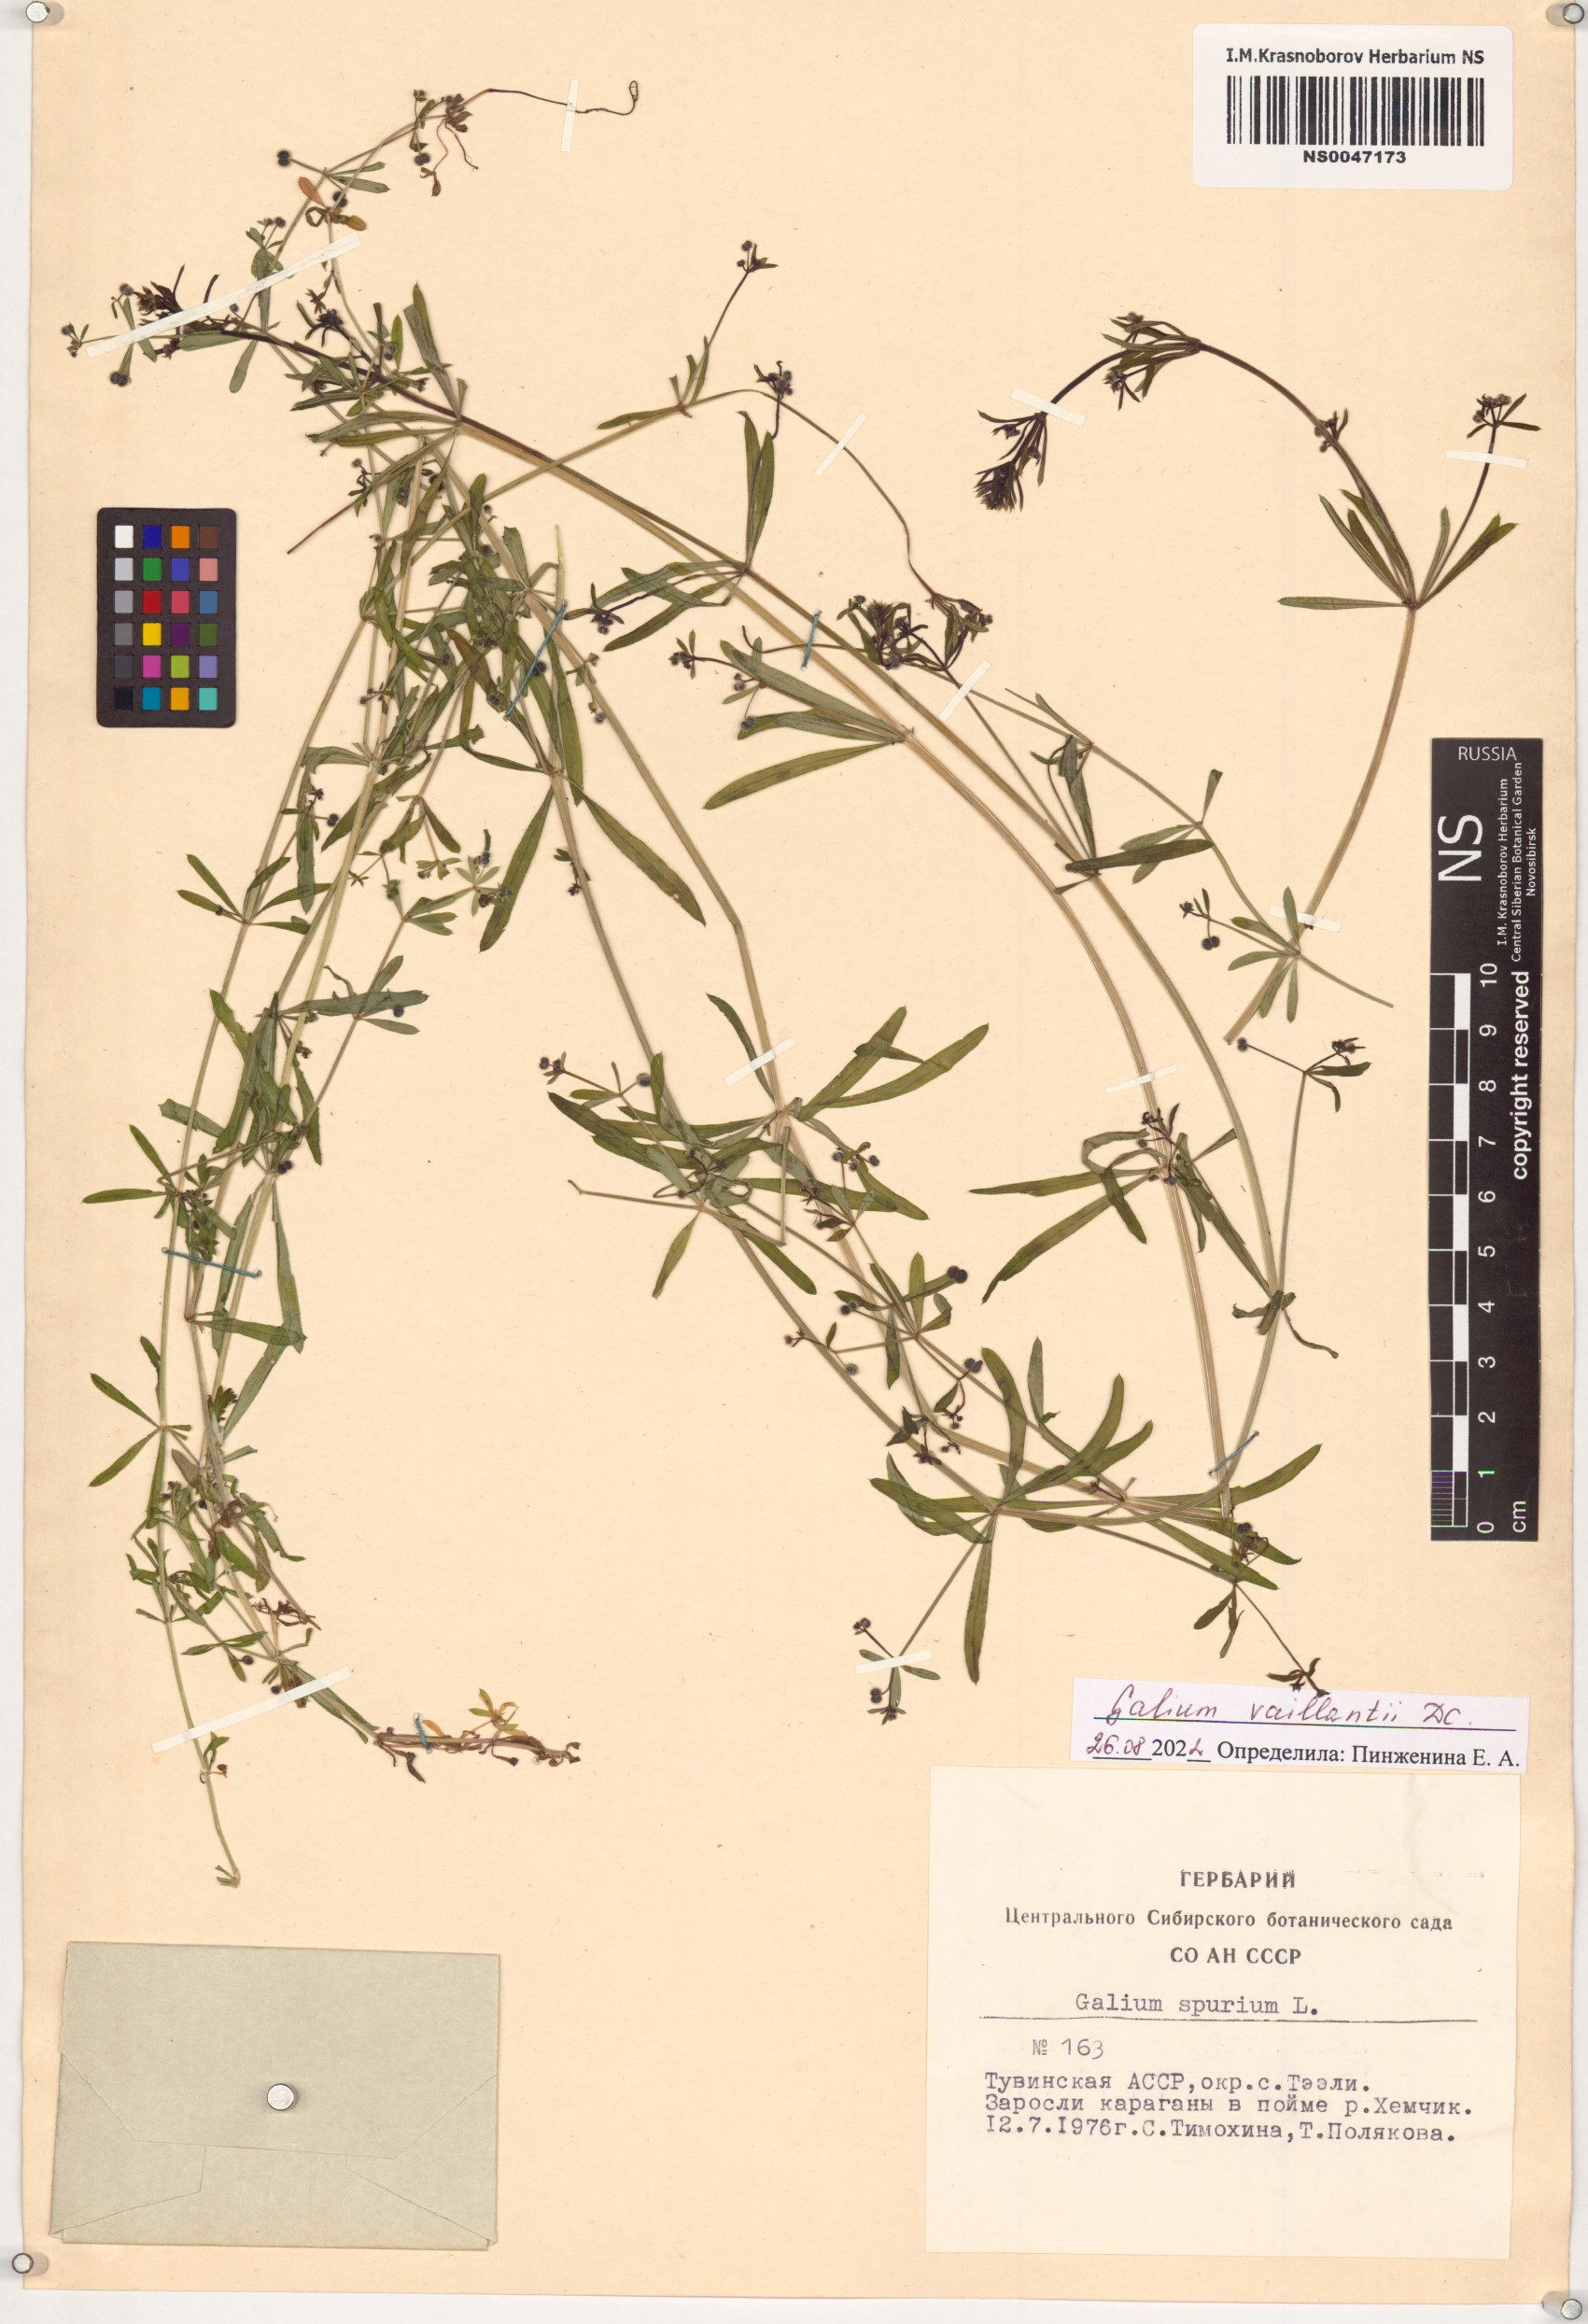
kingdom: Plantae
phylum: Tracheophyta
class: Magnoliopsida
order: Gentianales
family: Rubiaceae
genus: Galium
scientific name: Galium spurium
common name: False cleavers
